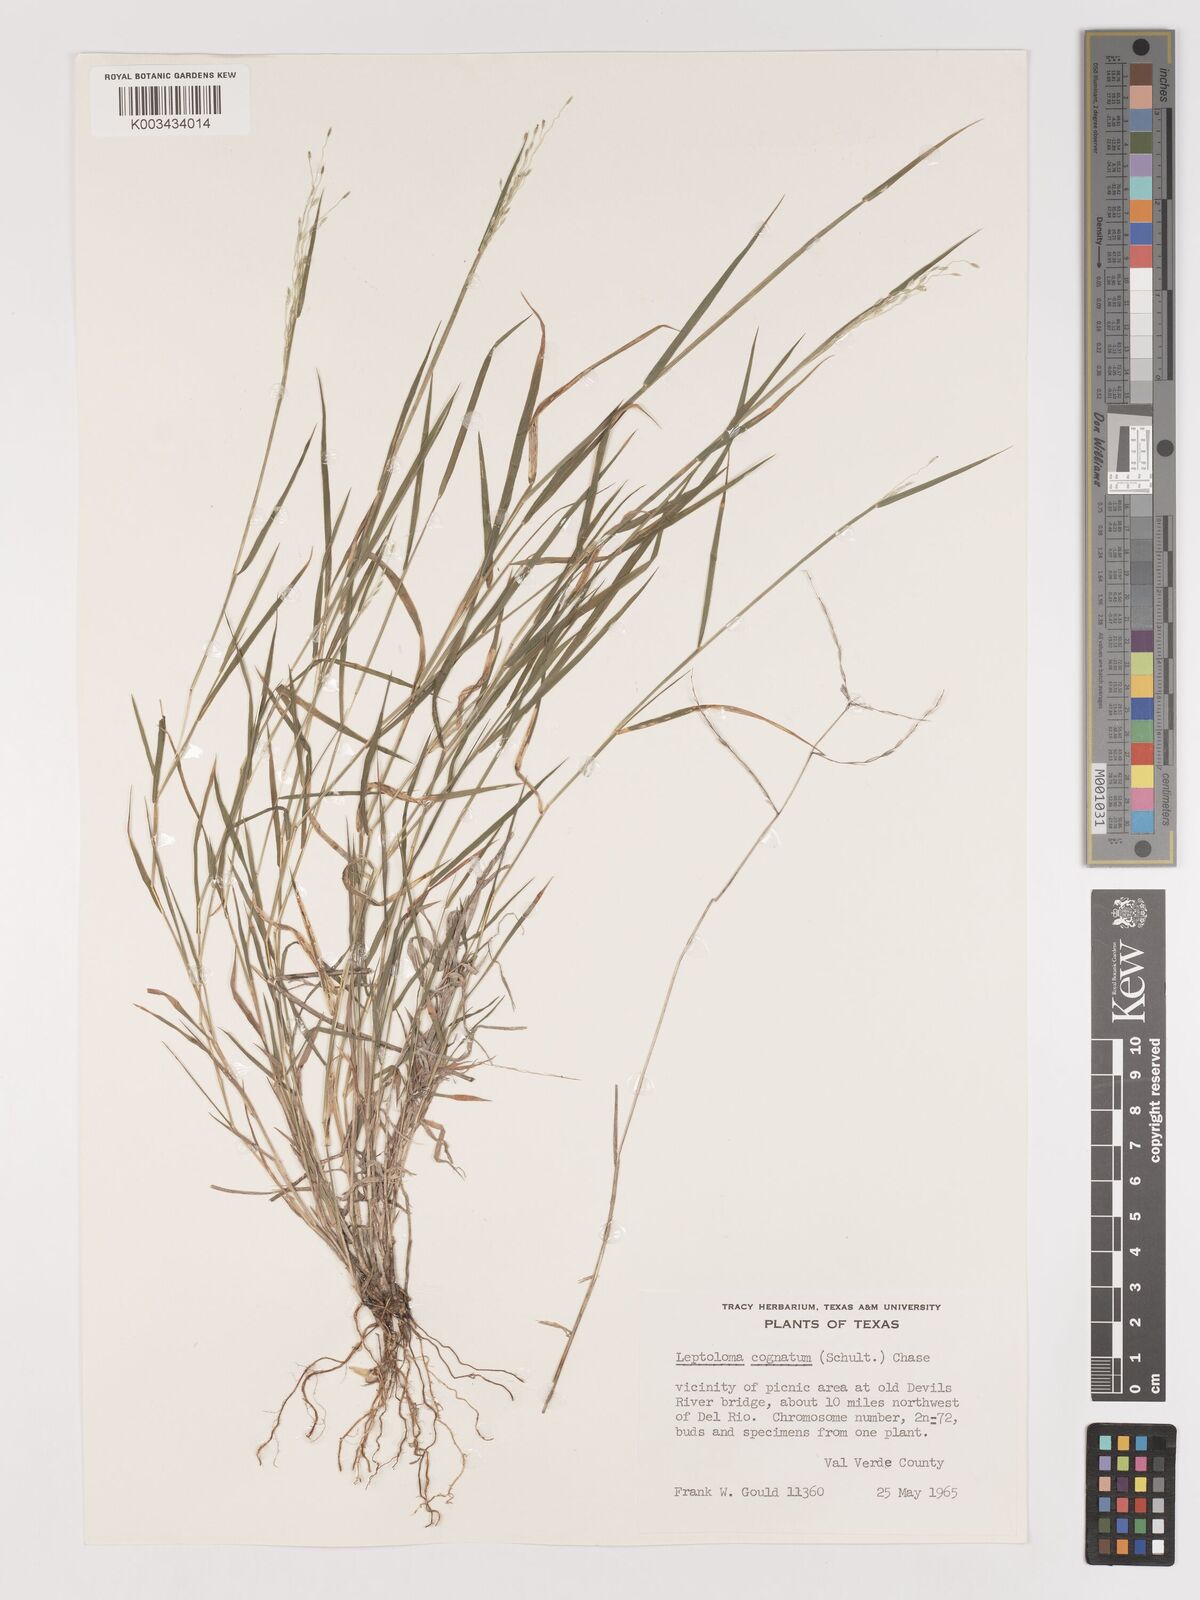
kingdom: Plantae
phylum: Tracheophyta
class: Liliopsida
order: Poales
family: Poaceae
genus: Digitaria
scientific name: Digitaria cognata
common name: Fall witchgrass
